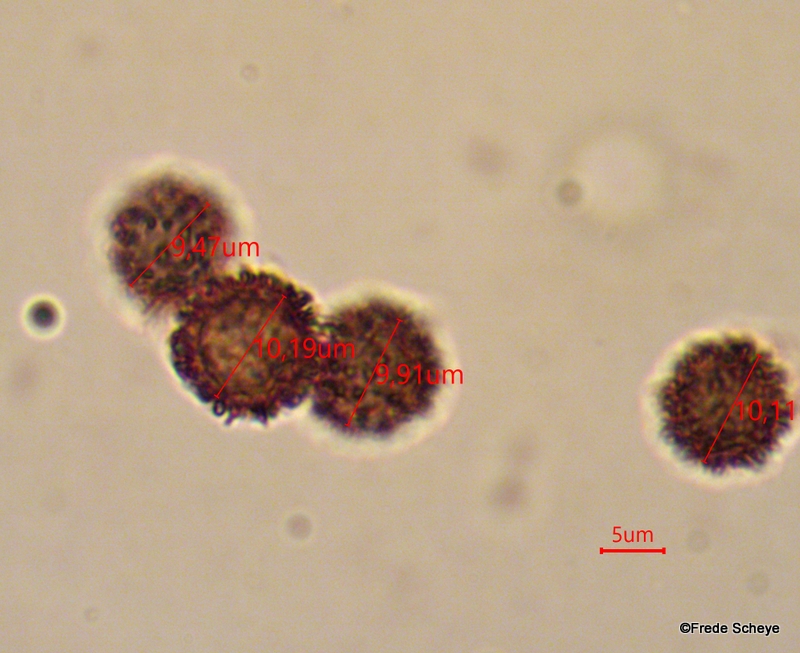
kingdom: Fungi
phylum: Basidiomycota
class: Agaricomycetes
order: Boletales
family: Sclerodermataceae
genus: Scleroderma
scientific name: Scleroderma verrucosum
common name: stilket bruskbold
